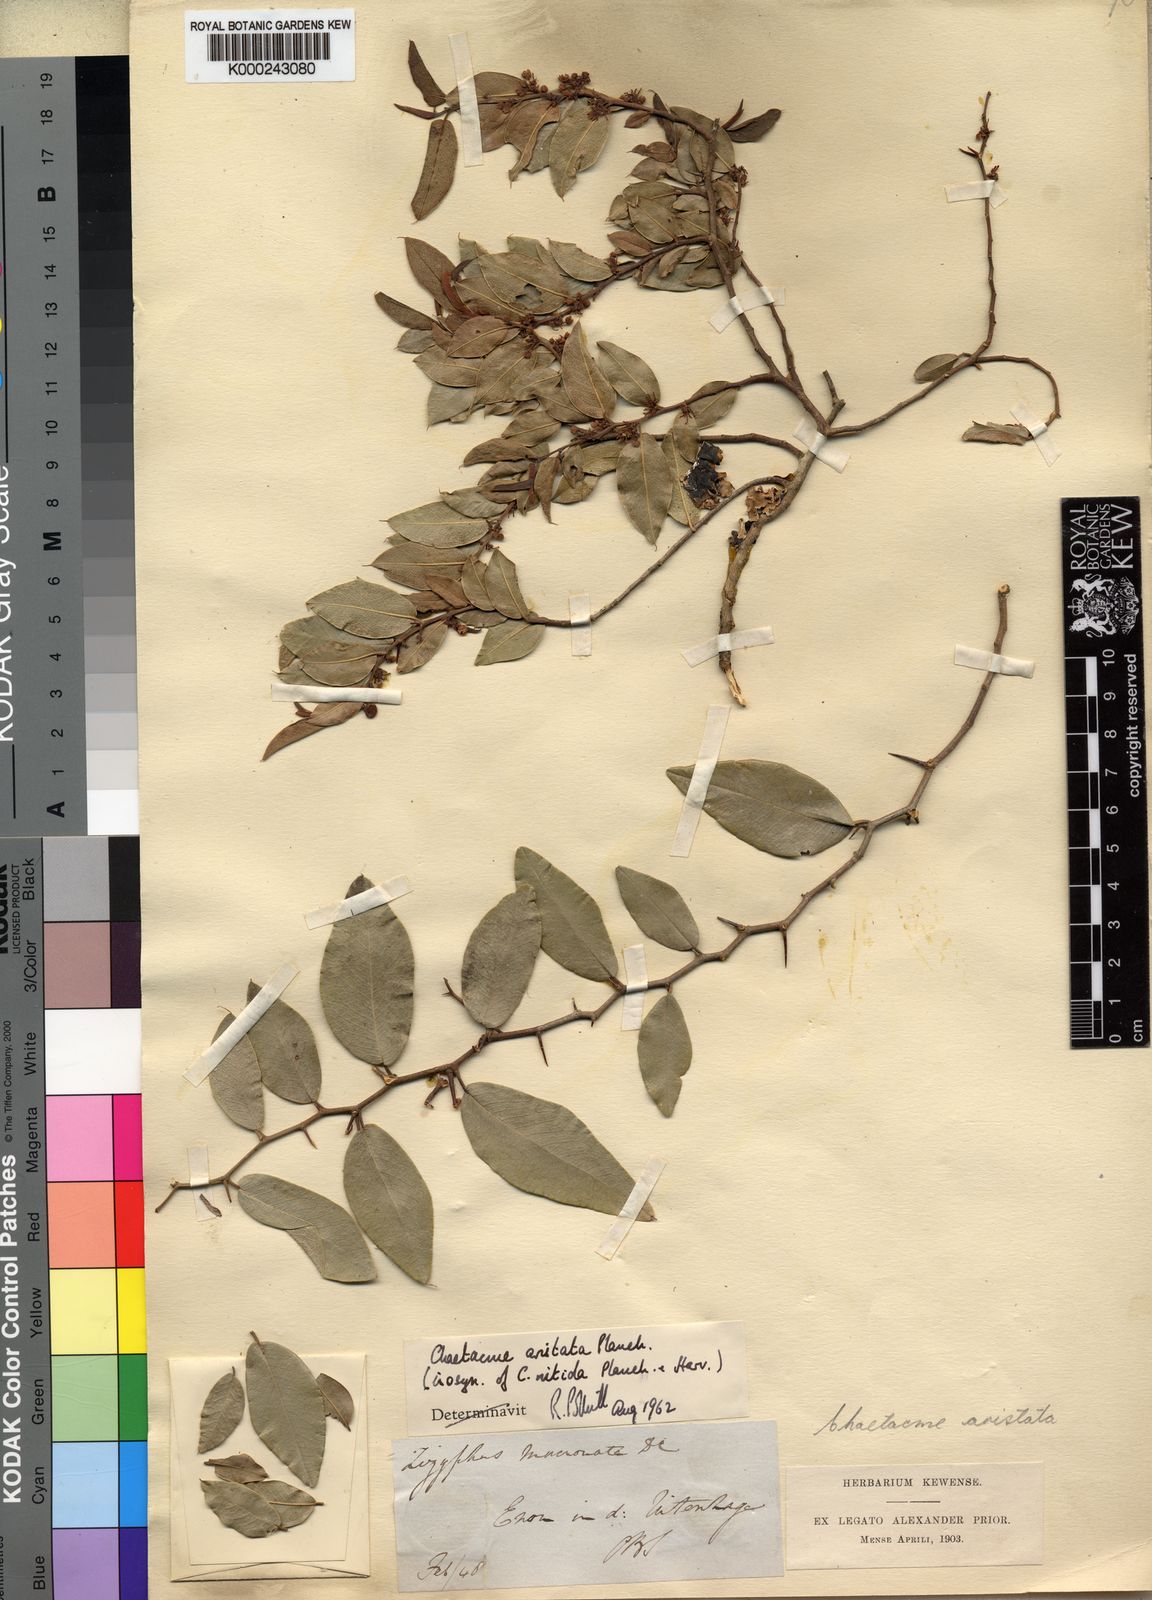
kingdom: Plantae
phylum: Tracheophyta
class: Magnoliopsida
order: Rosales
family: Cannabaceae
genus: Chaetachme
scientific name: Chaetachme aristata
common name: Thorny elm
